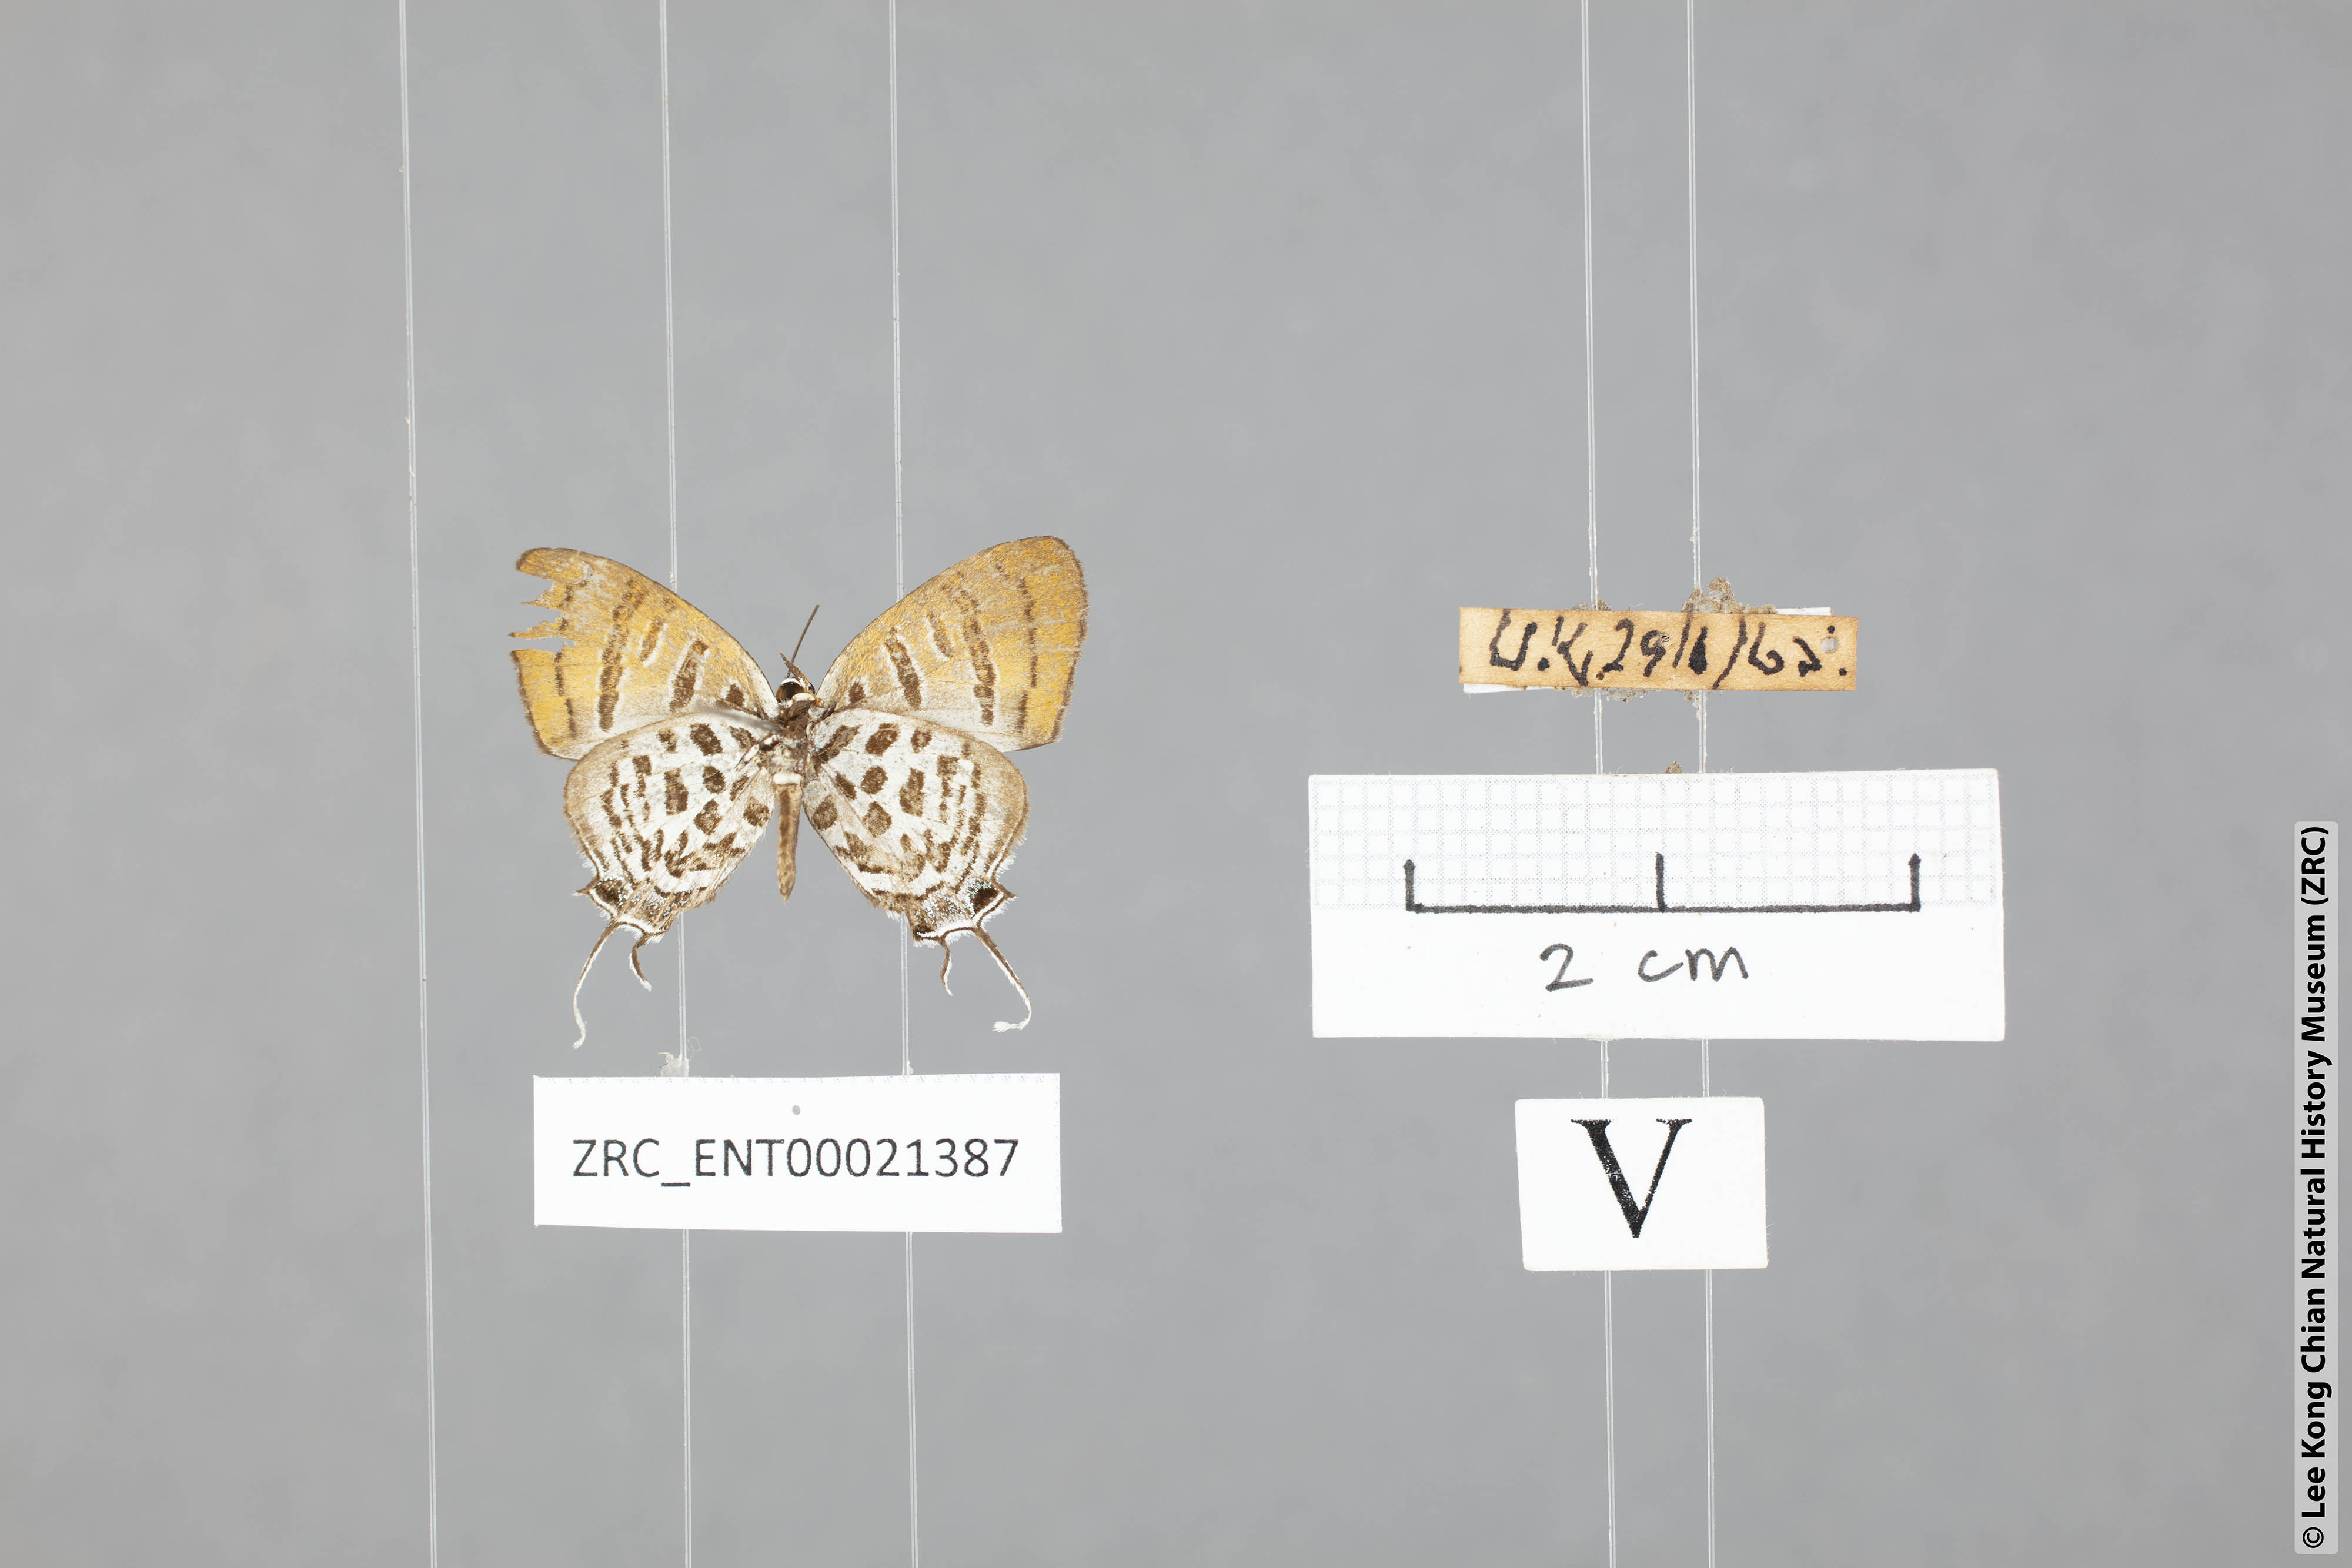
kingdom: Animalia
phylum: Arthropoda
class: Insecta
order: Lepidoptera
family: Lycaenidae
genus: Drupadia
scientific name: Drupadia niasica
